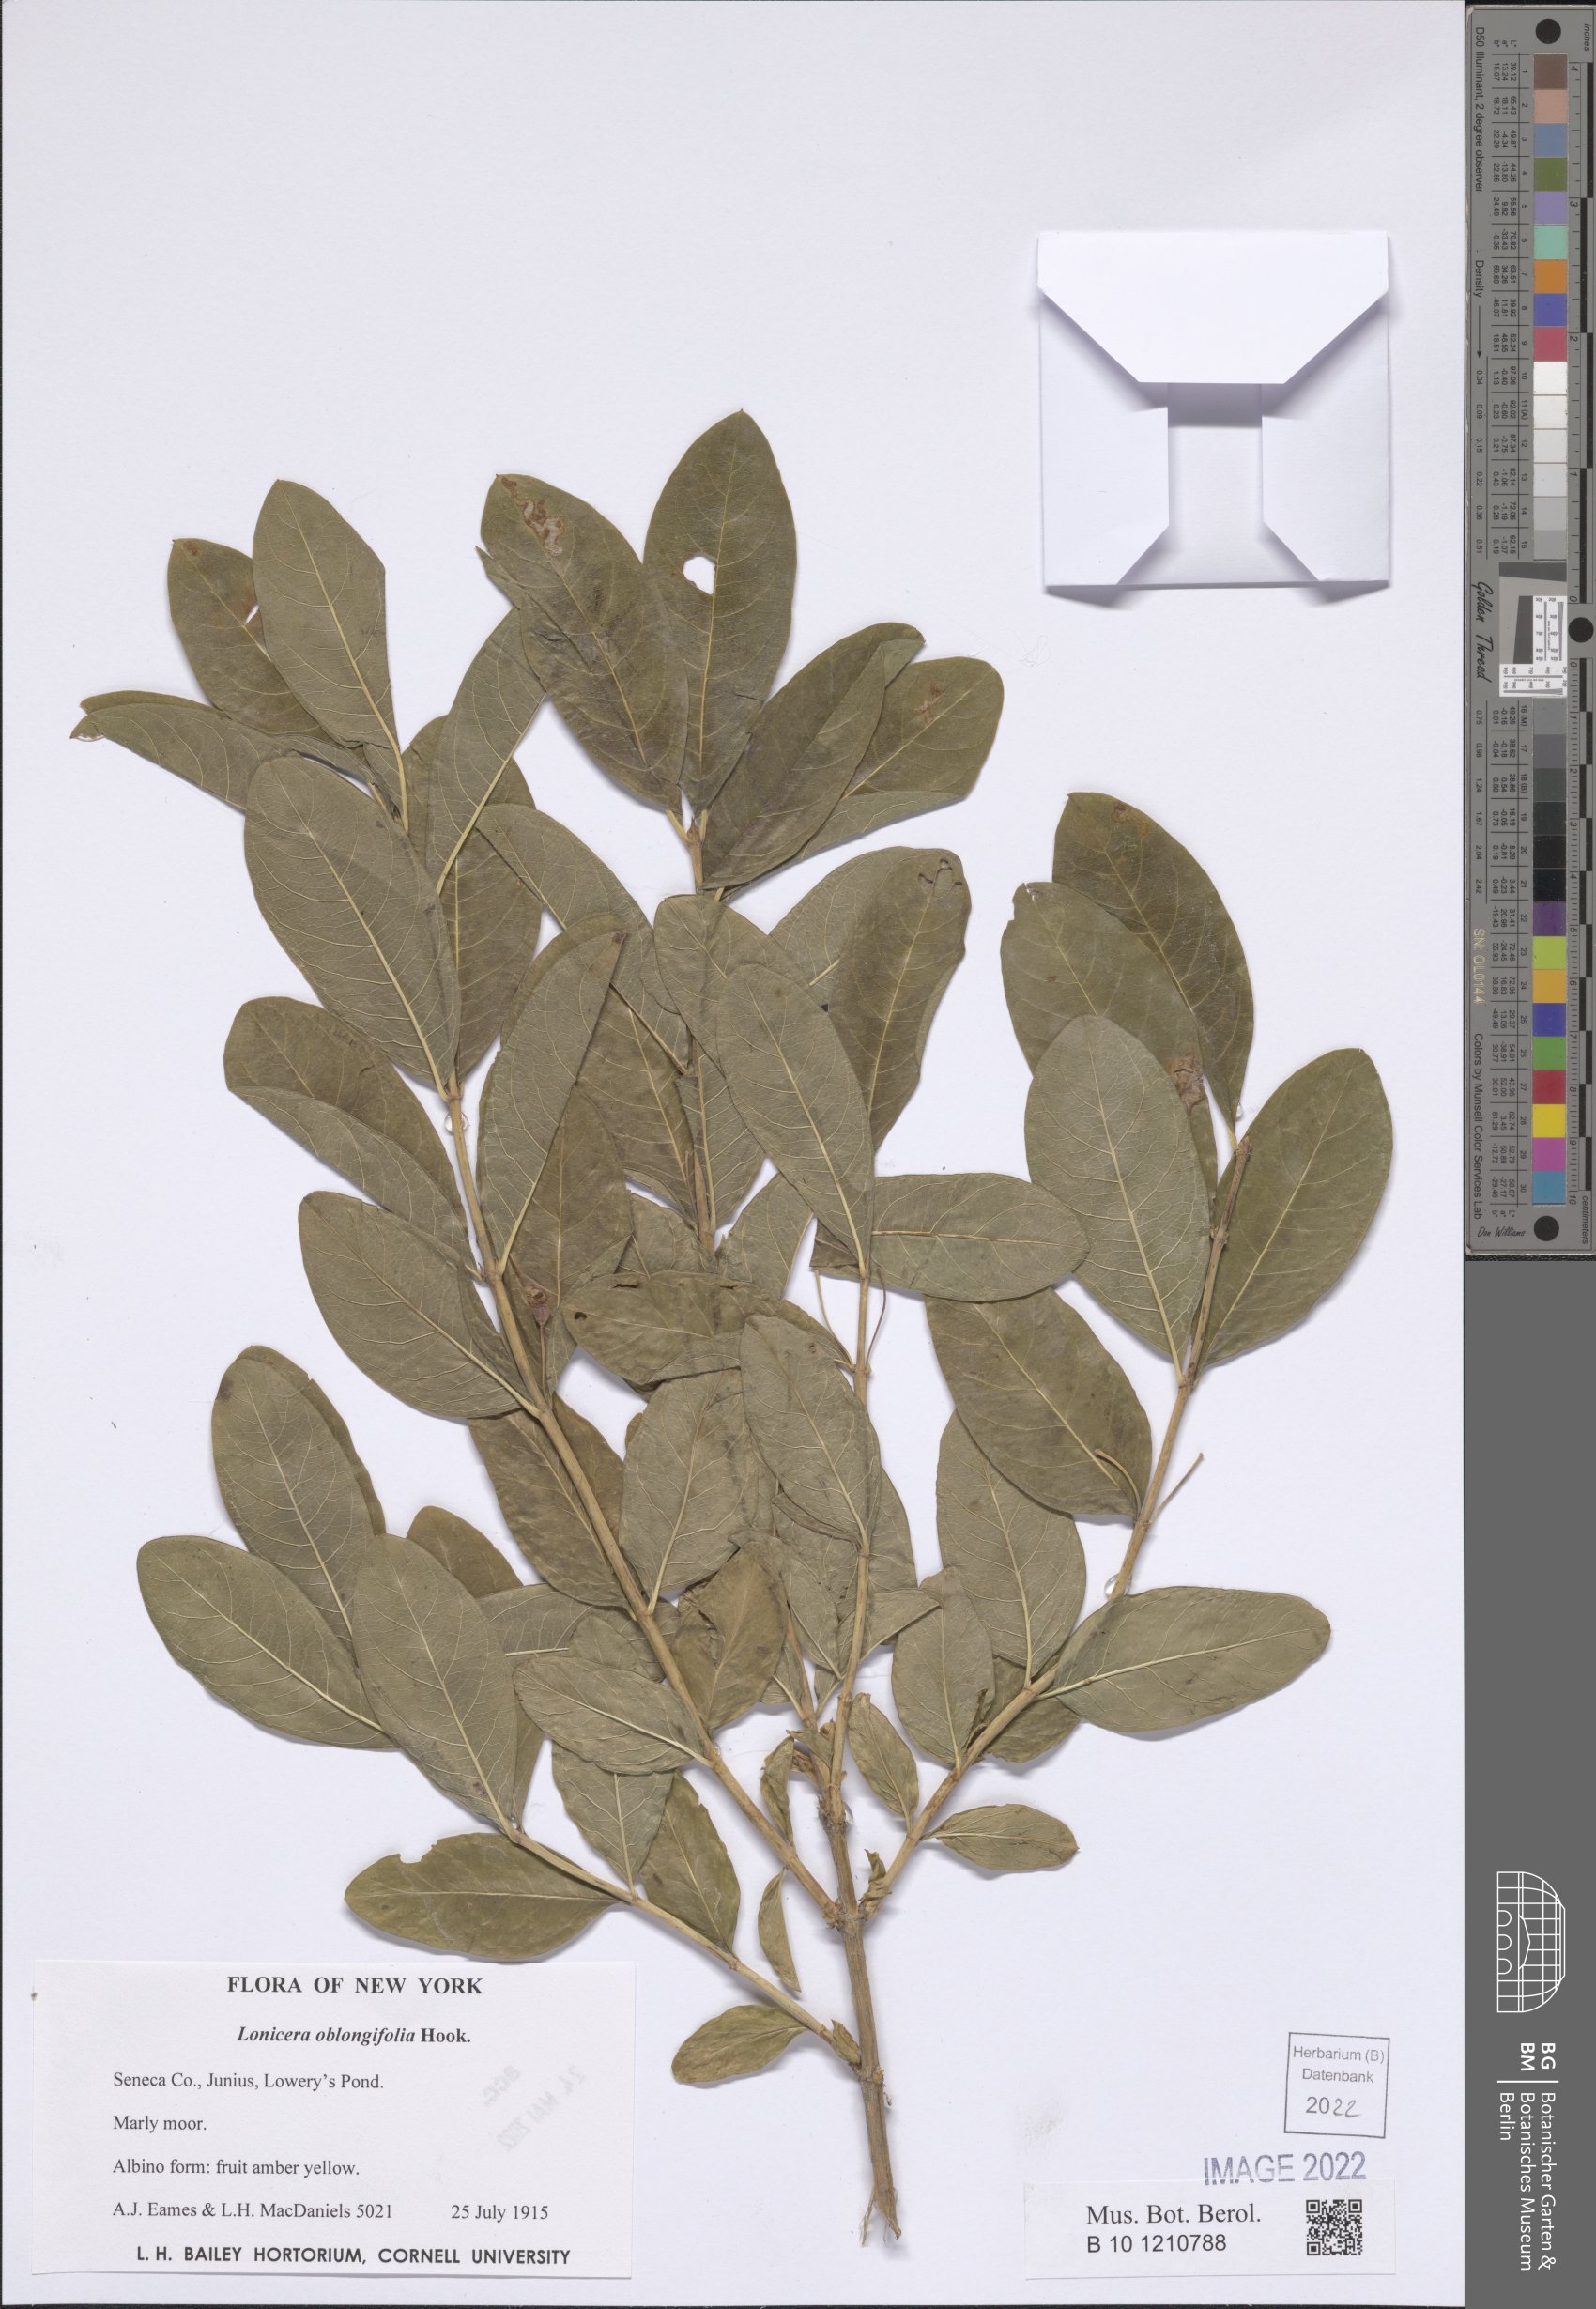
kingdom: Plantae
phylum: Tracheophyta
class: Magnoliopsida
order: Dipsacales
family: Caprifoliaceae
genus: Lonicera
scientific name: Lonicera oblongifolia
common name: Swamp fly honeysuckle
